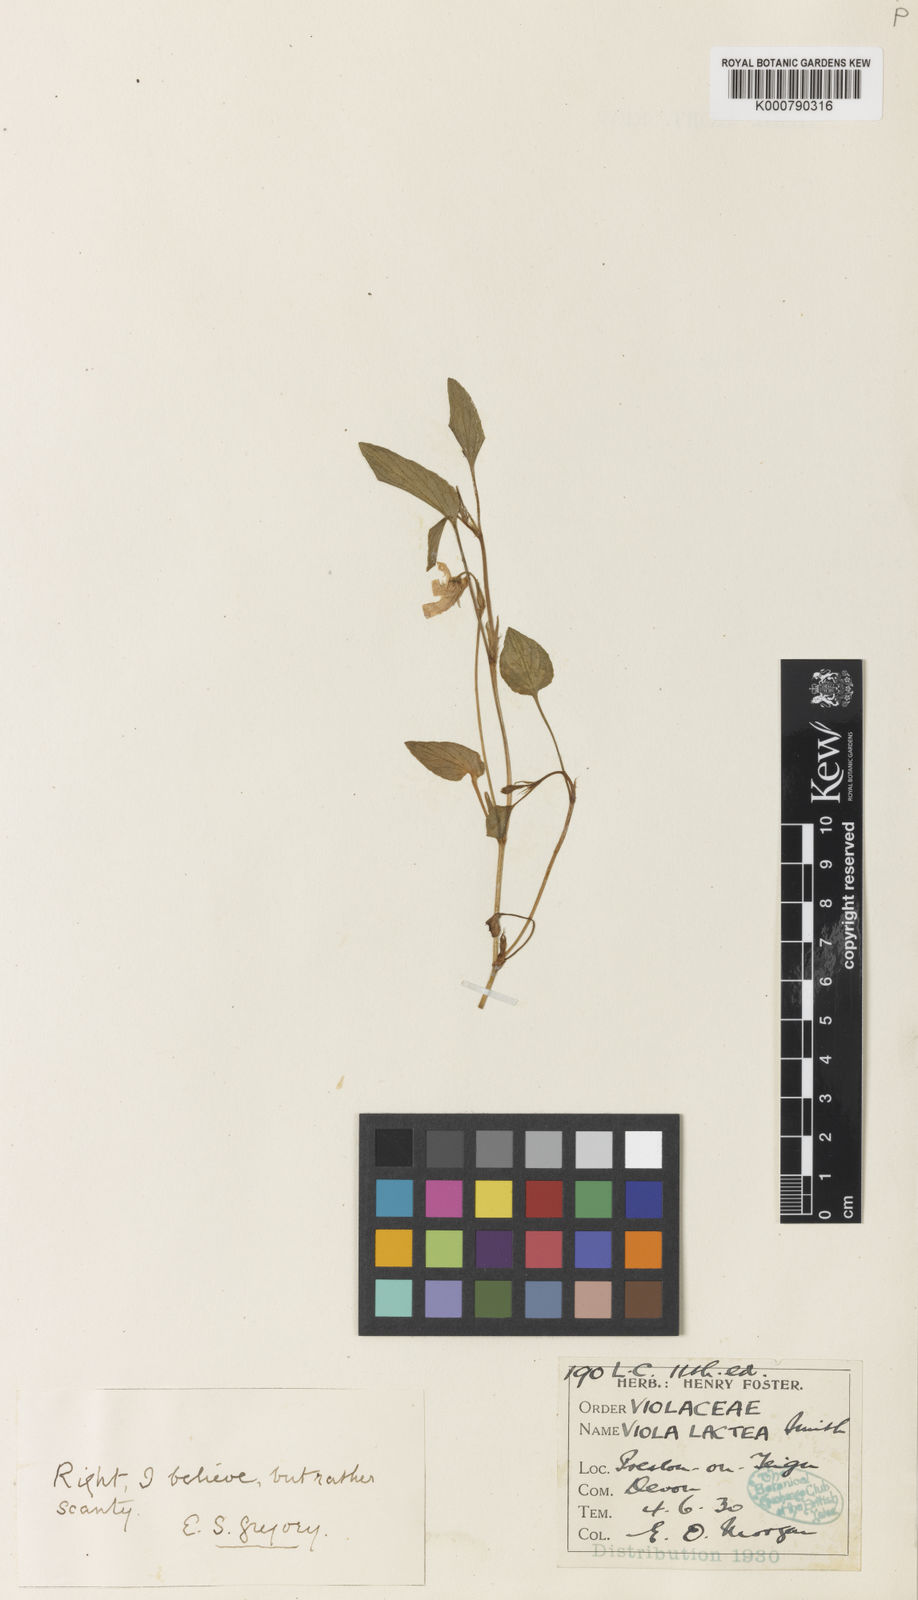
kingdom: Plantae
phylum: Tracheophyta
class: Magnoliopsida
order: Malpighiales
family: Violaceae
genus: Viola
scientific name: Viola lactea
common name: Pale dog-violet
